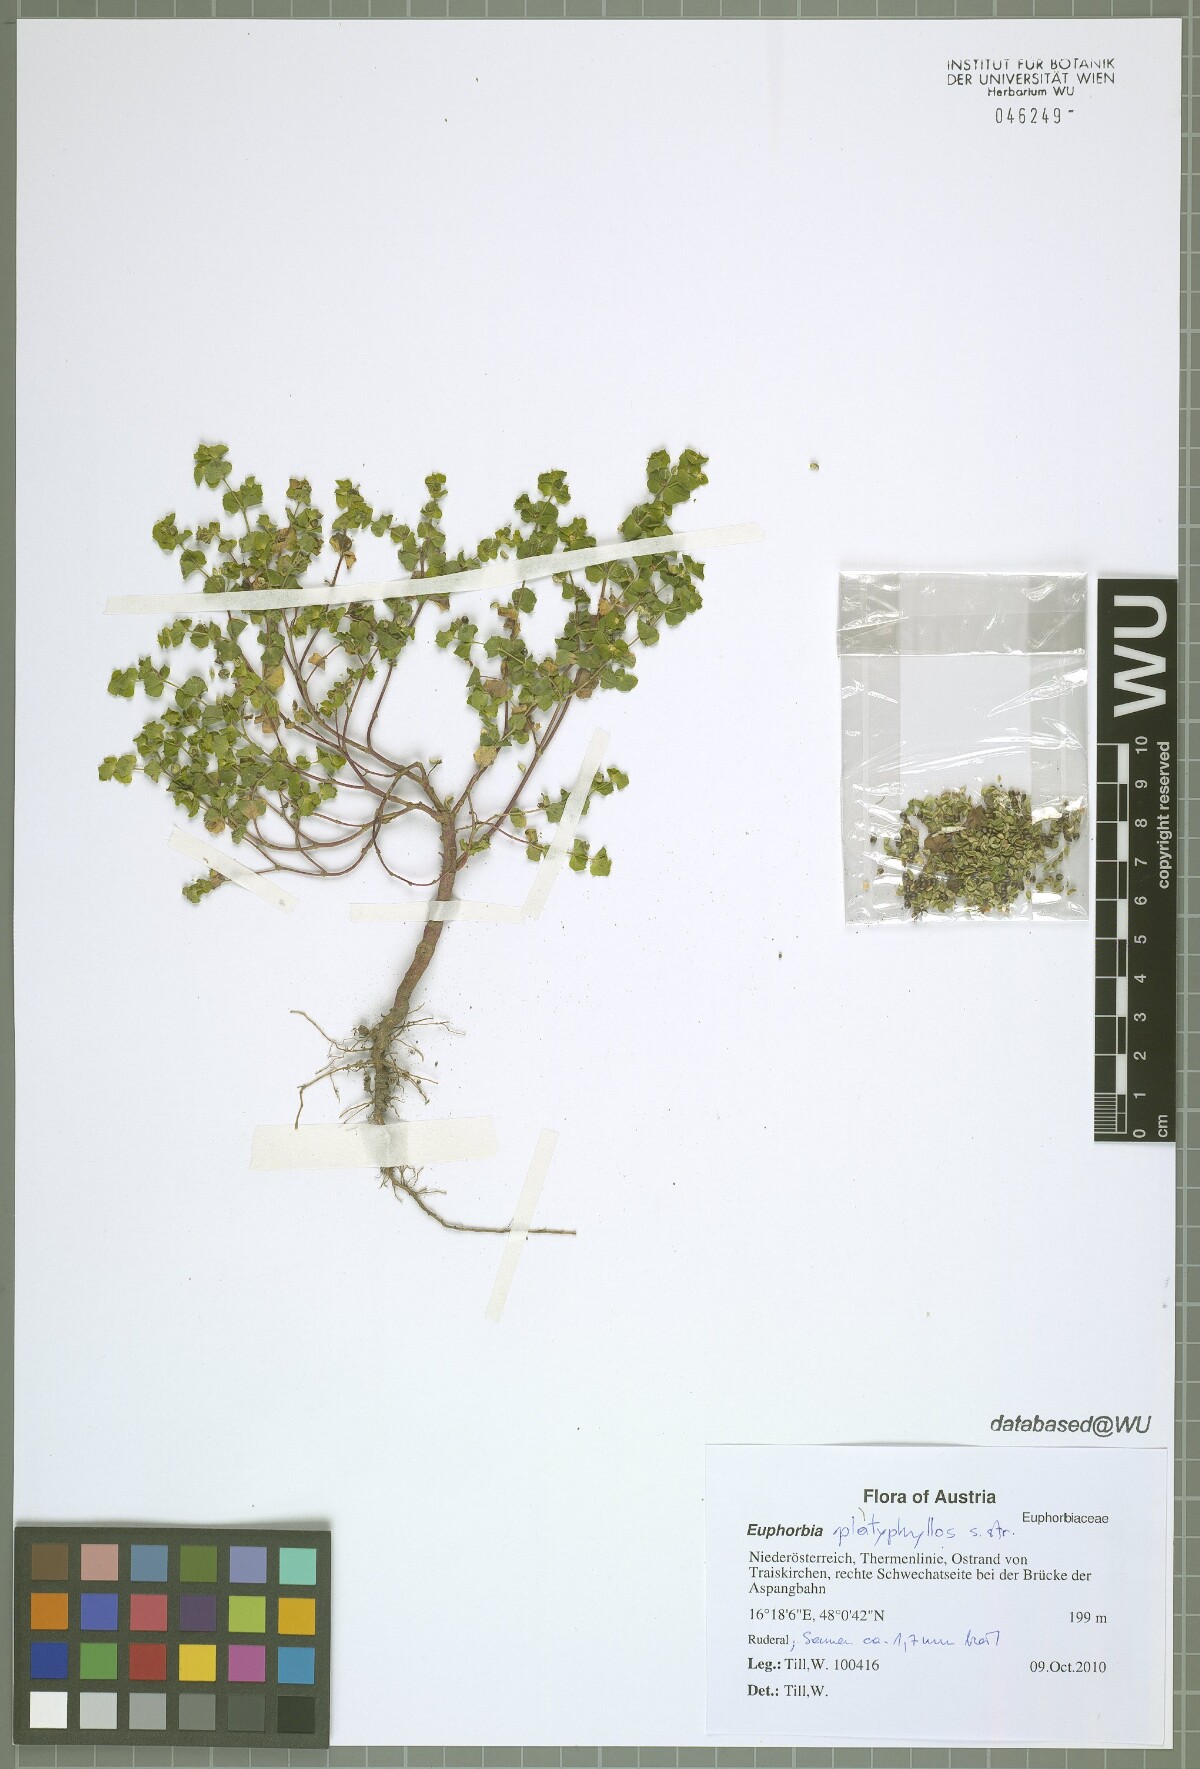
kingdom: Plantae
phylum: Tracheophyta
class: Magnoliopsida
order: Malpighiales
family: Euphorbiaceae
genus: Euphorbia
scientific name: Euphorbia platyphyllos
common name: Broad-leaved spurge
